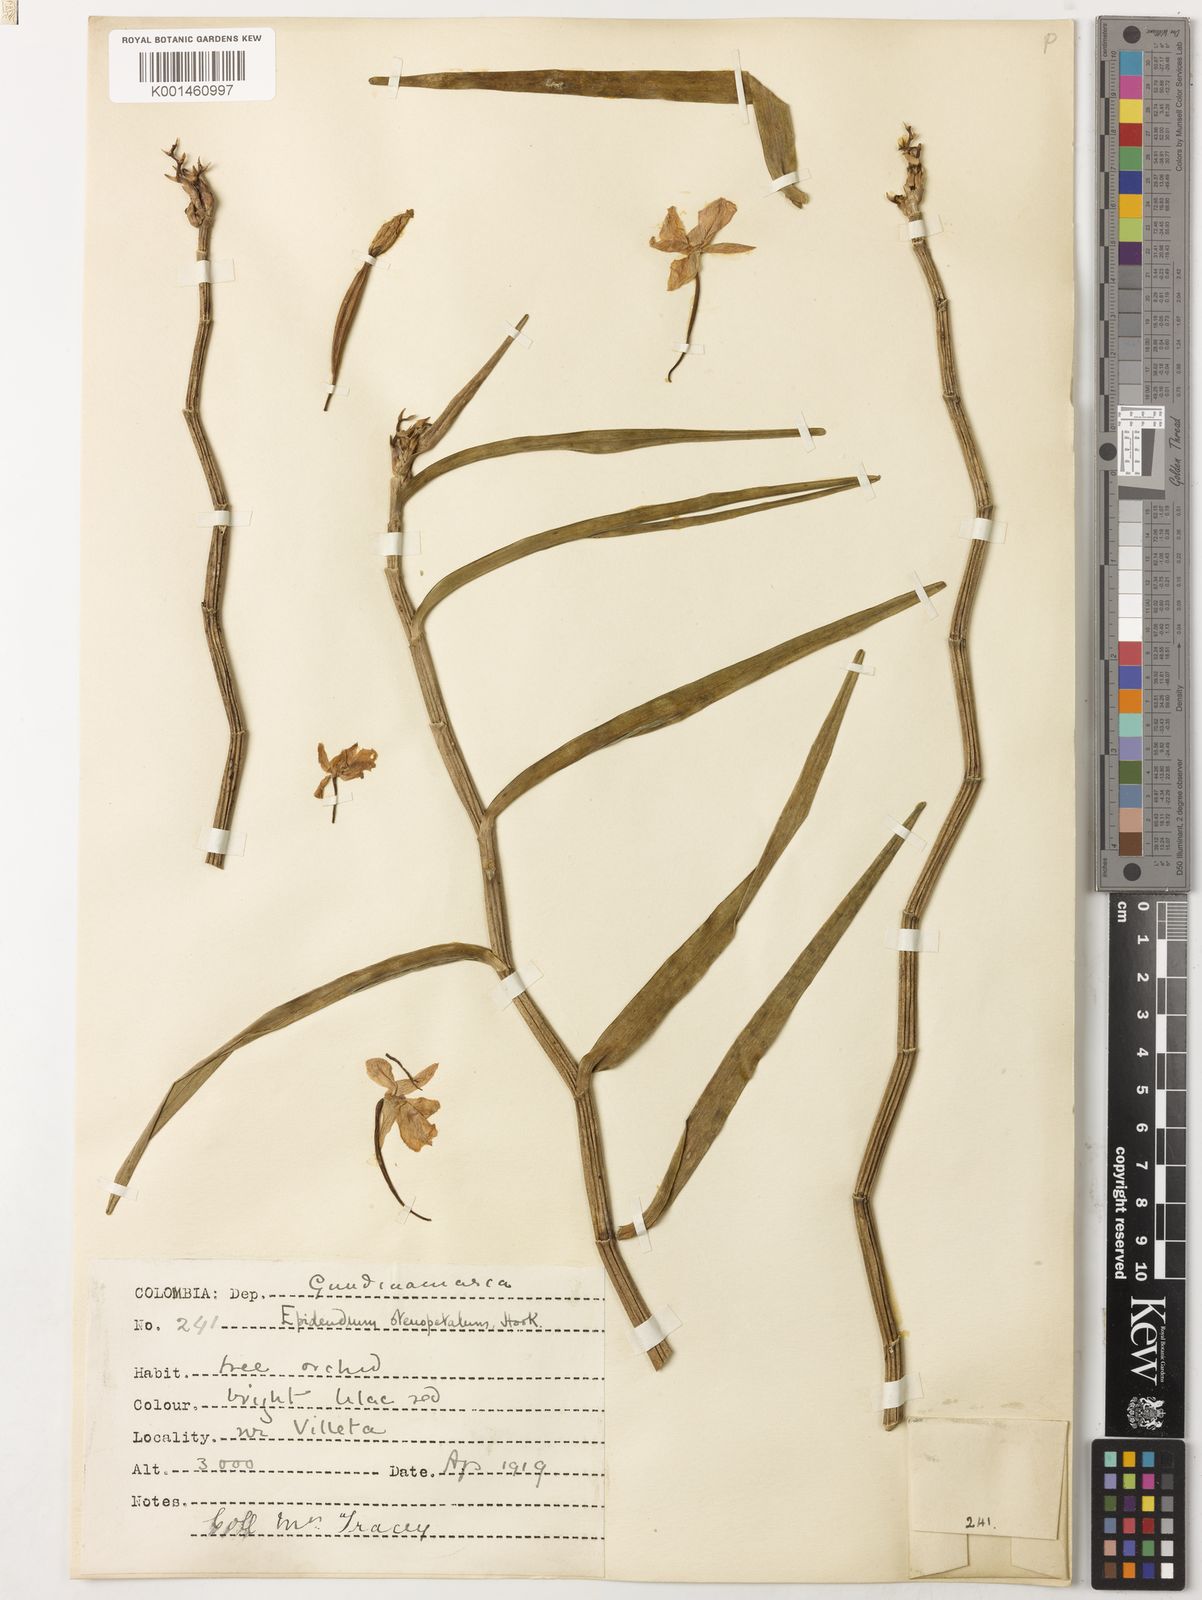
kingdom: Plantae
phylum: Tracheophyta
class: Liliopsida
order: Asparagales
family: Orchidaceae
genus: Dimerandra
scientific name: Dimerandra stenopetala
